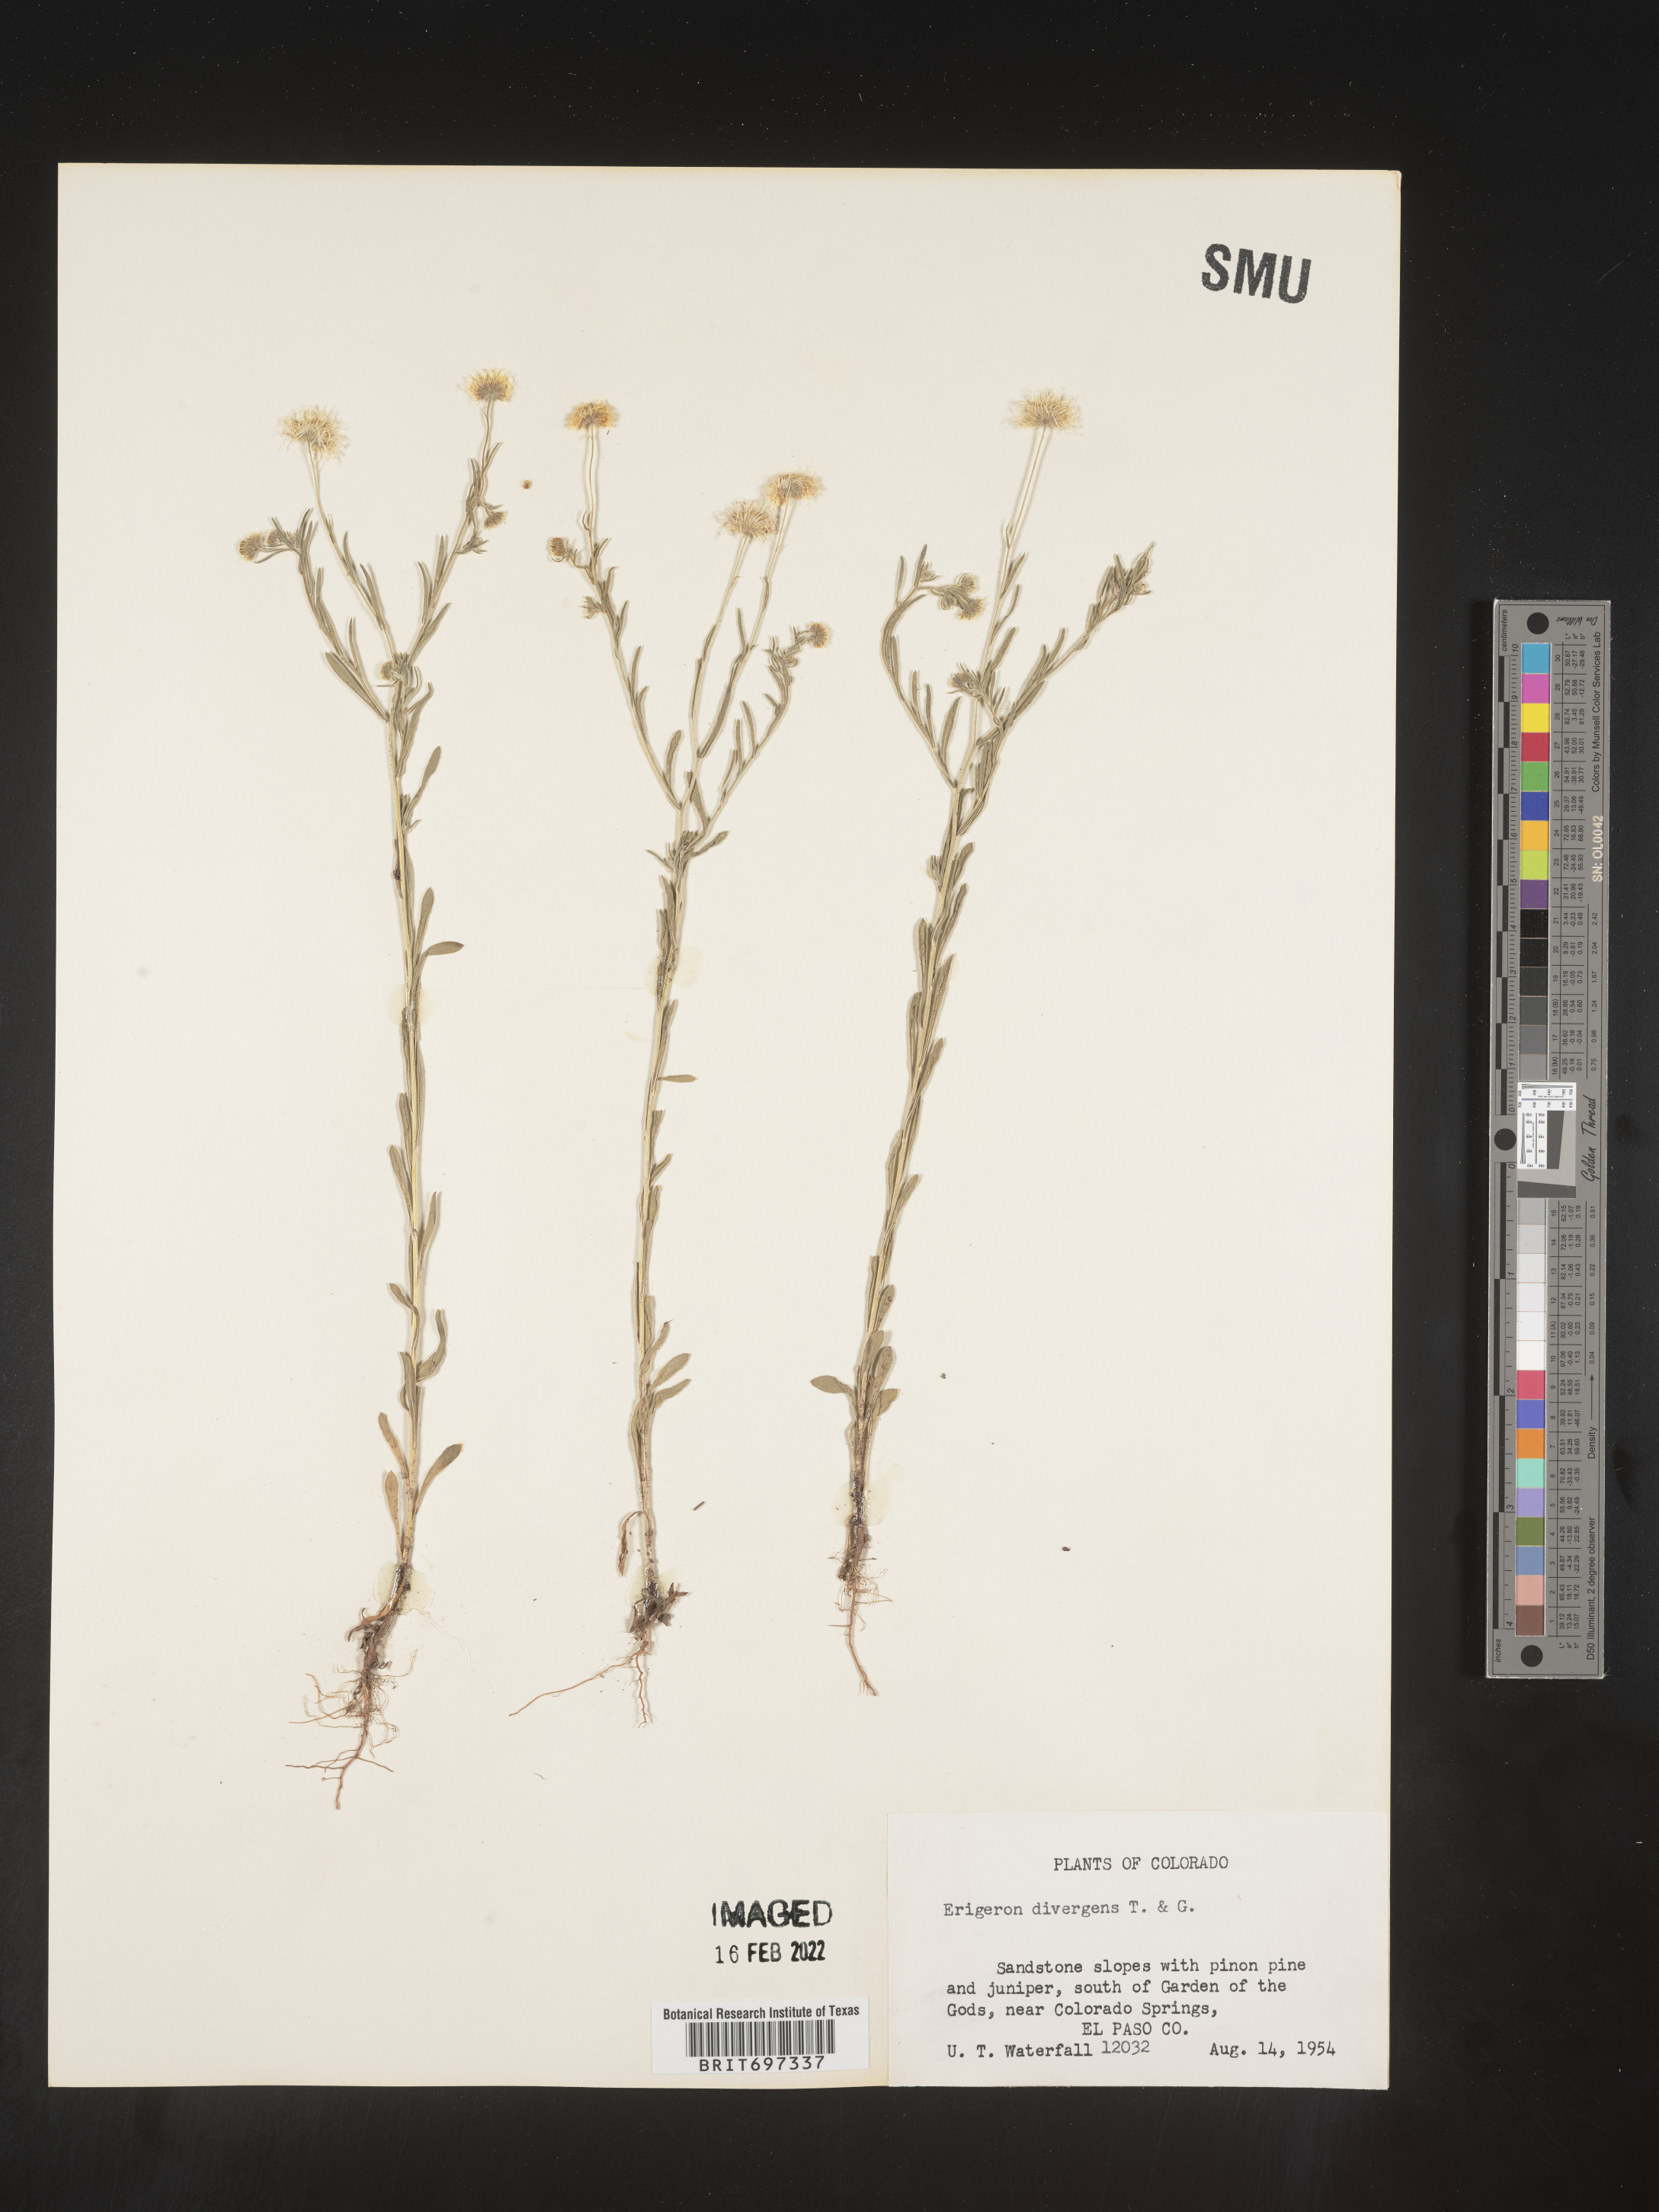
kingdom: Plantae
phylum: Tracheophyta
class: Magnoliopsida
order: Asterales
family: Asteraceae
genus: Erigeron
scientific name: Erigeron divergens
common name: Diffuse fleabane
